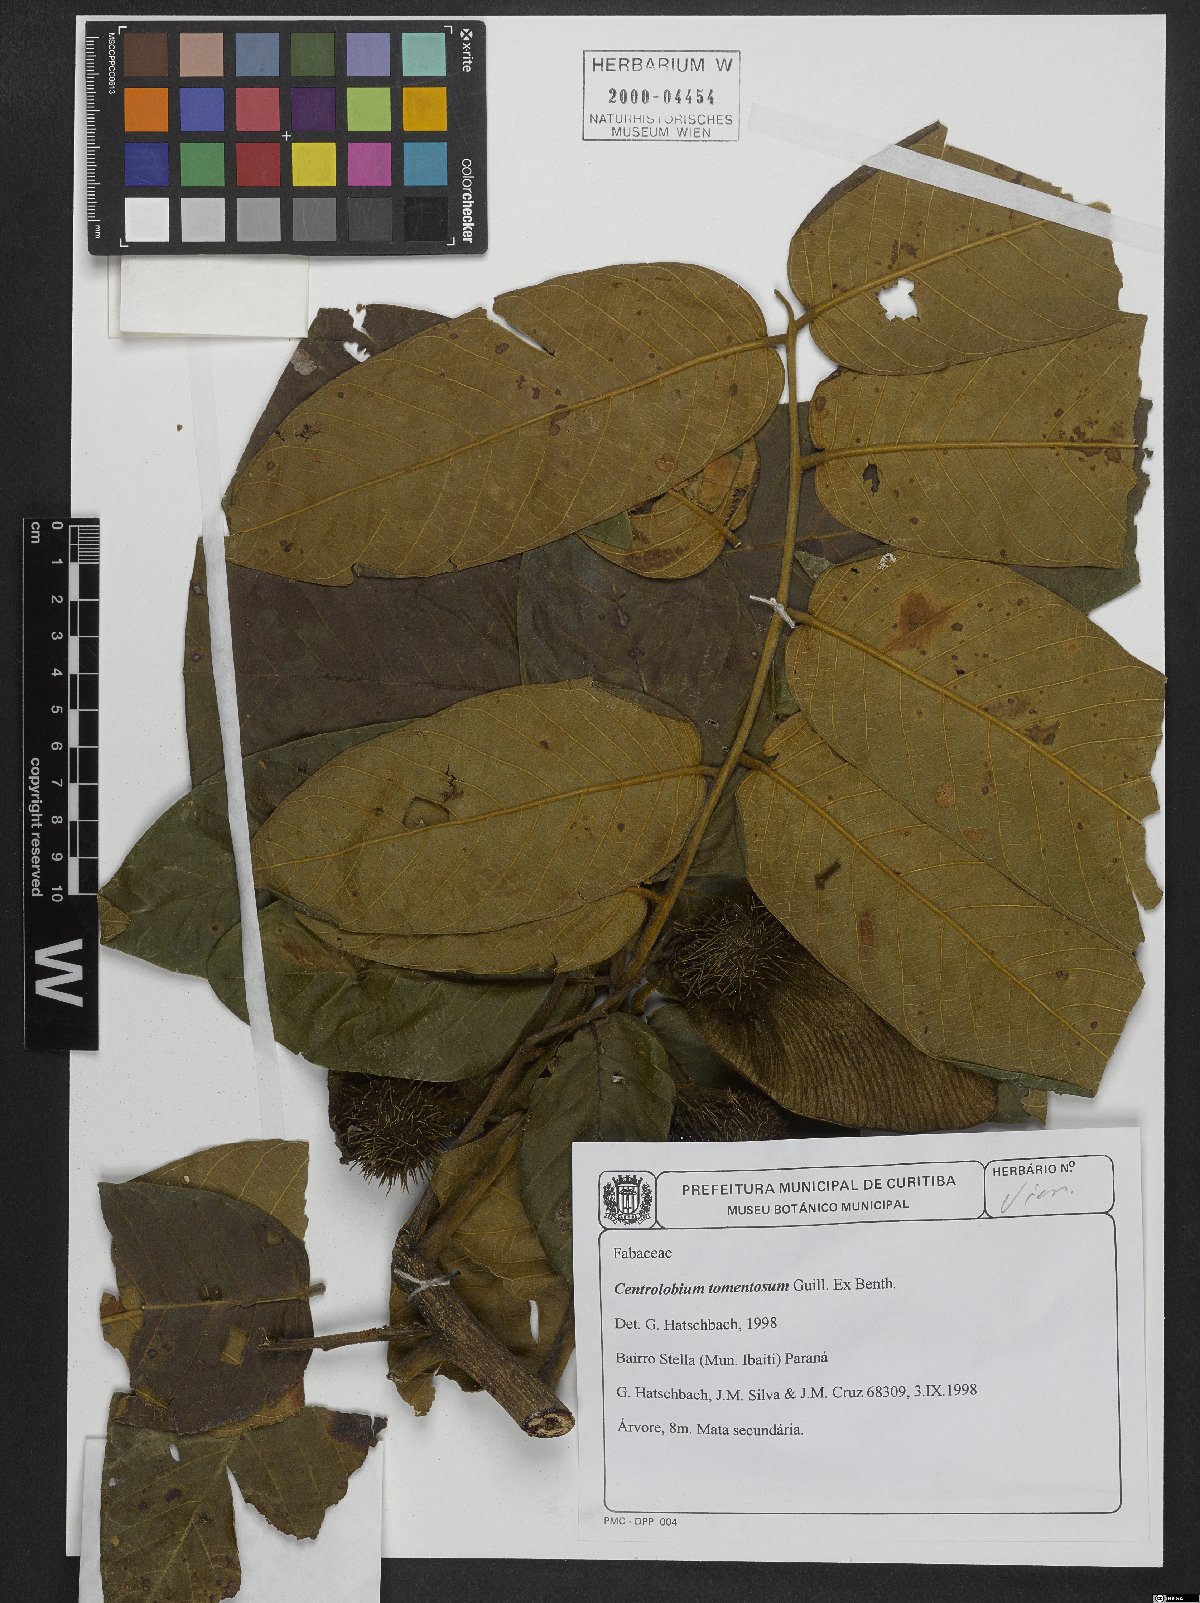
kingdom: Plantae
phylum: Tracheophyta
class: Magnoliopsida
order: Fabales
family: Fabaceae
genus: Centrolobium
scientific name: Centrolobium tomentosum
